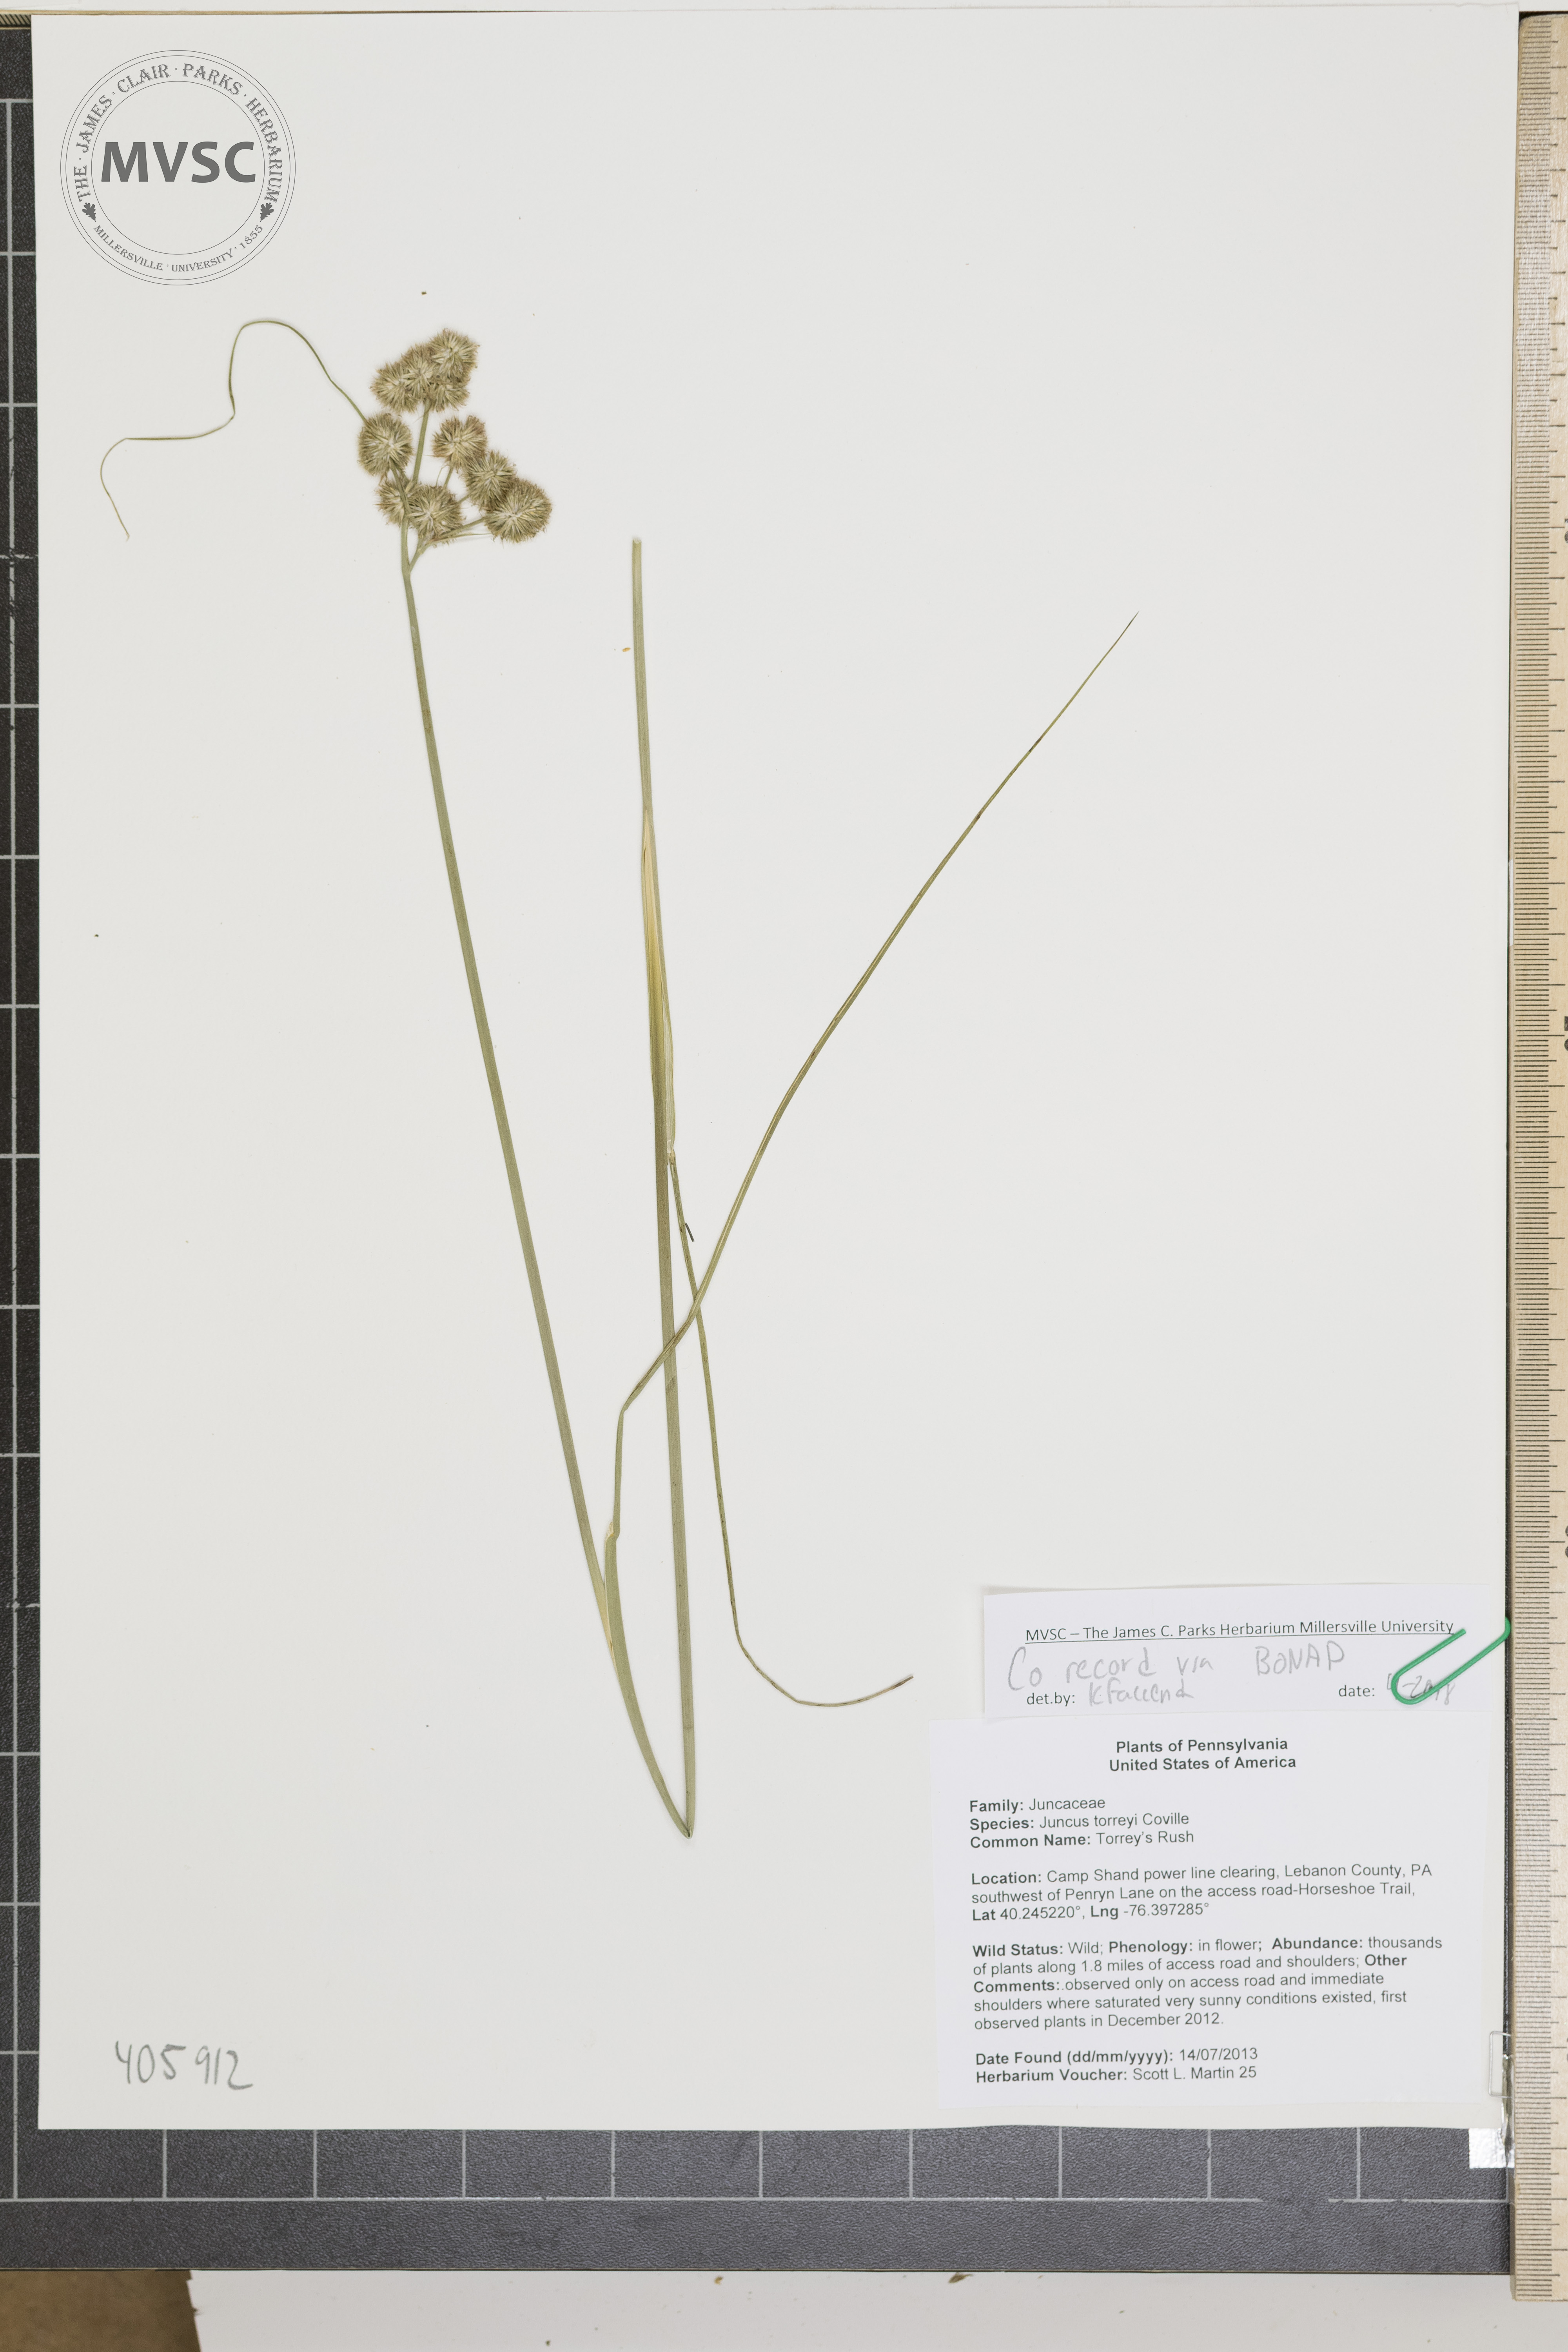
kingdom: Plantae
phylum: Tracheophyta
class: Liliopsida
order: Poales
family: Juncaceae
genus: Juncus
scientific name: Juncus torreyi
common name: Torrey's rush
